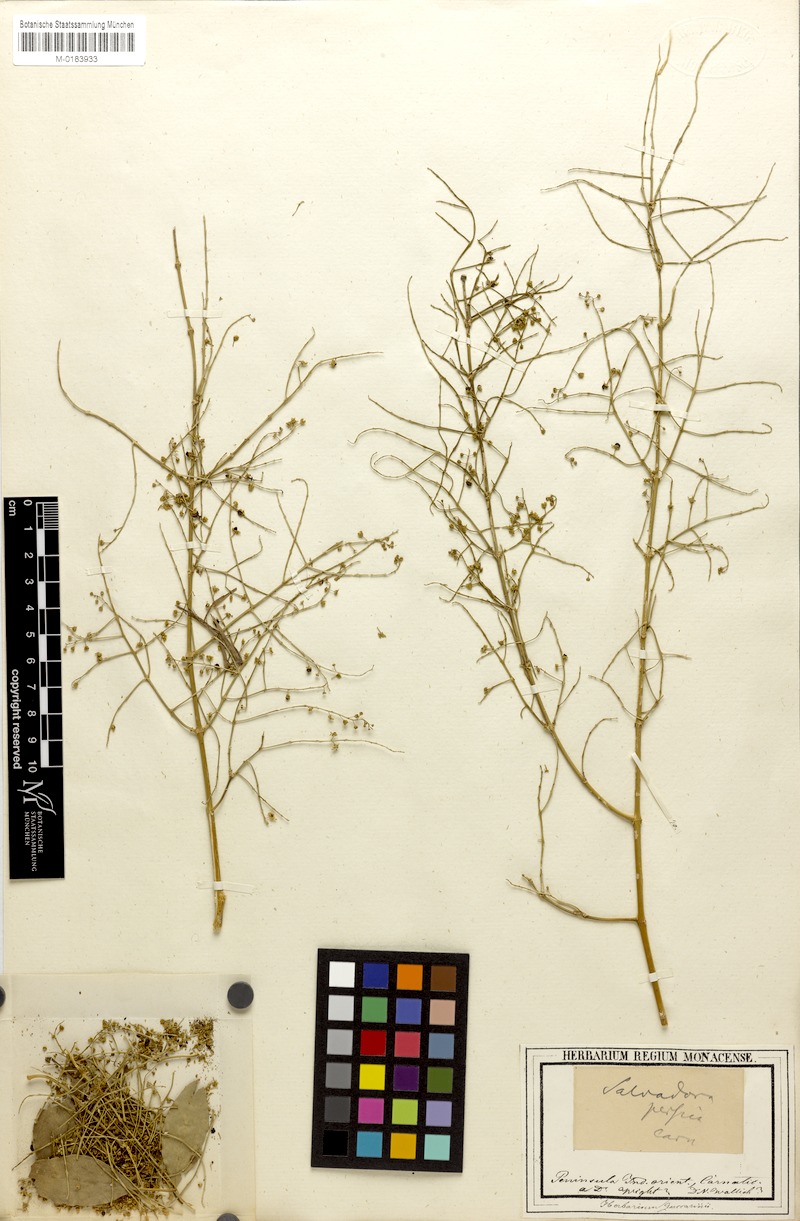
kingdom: Plantae
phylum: Tracheophyta
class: Magnoliopsida
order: Brassicales
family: Salvadoraceae
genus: Salvadora
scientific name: Salvadora persica
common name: Toothbrushtree
